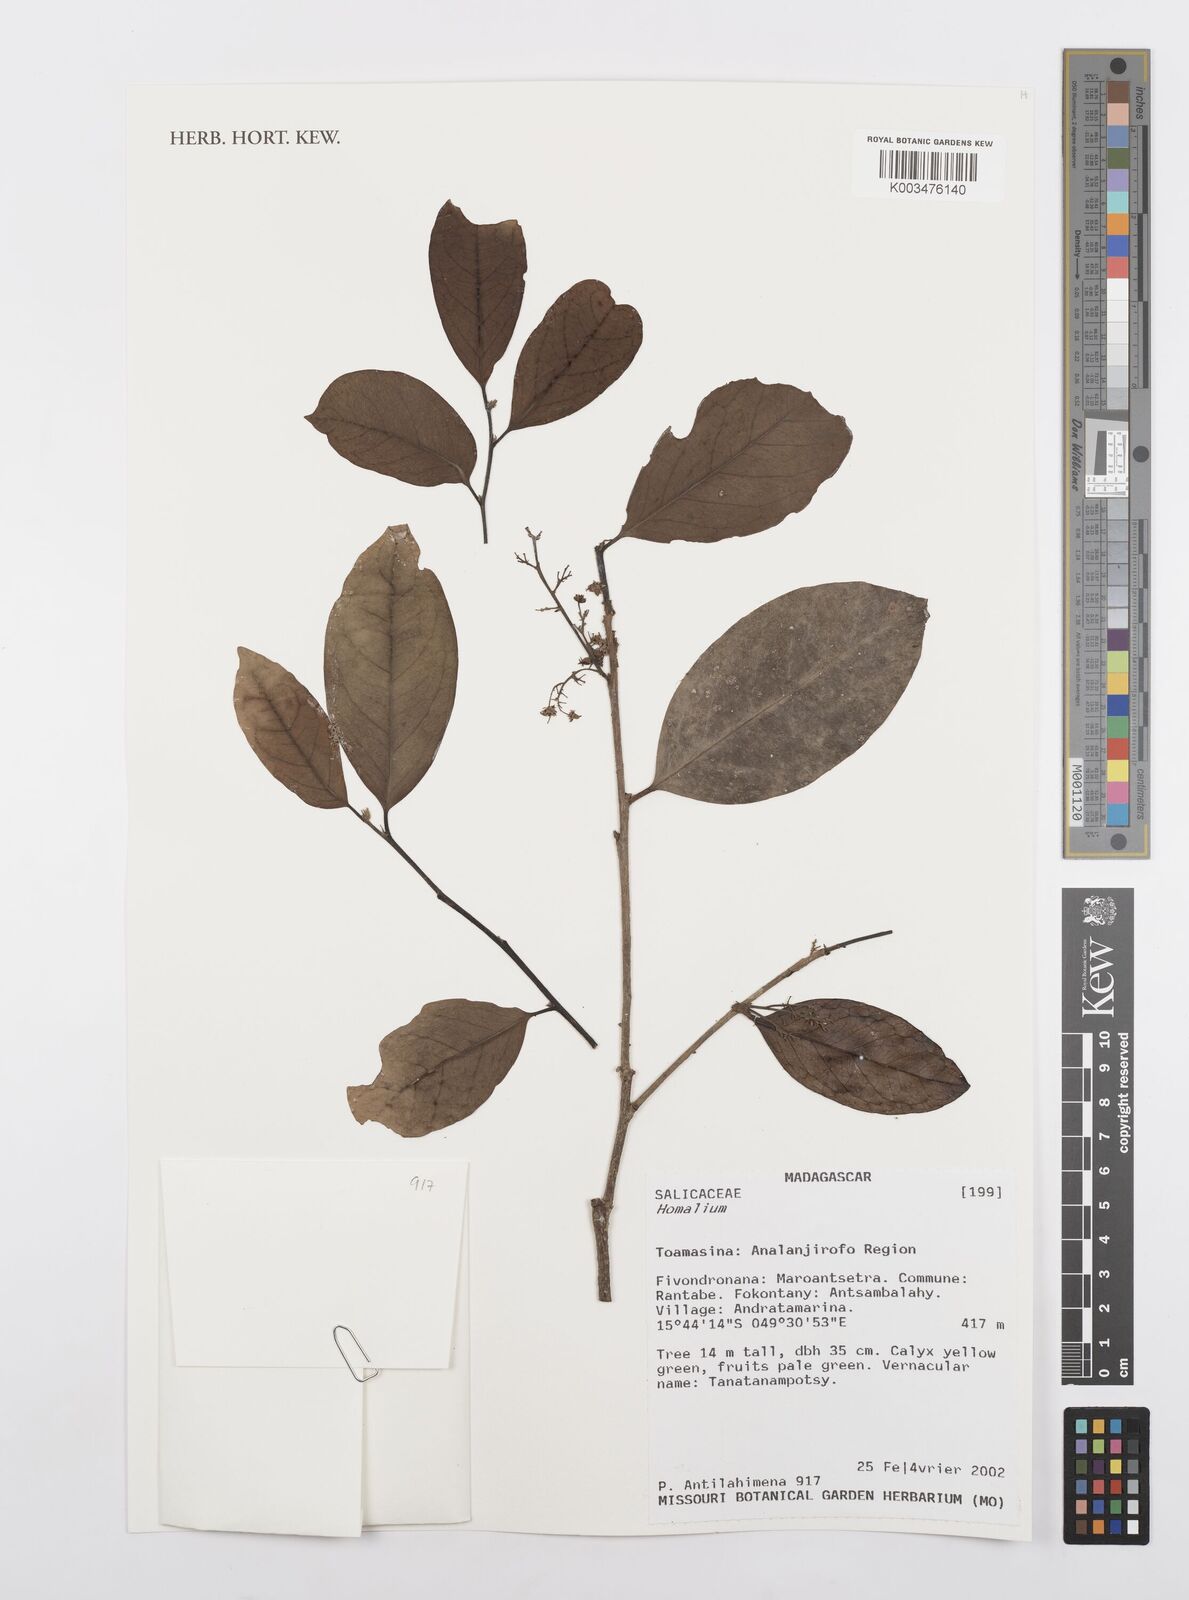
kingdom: Plantae
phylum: Tracheophyta
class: Magnoliopsida
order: Malpighiales
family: Salicaceae
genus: Homalium
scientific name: Homalium
